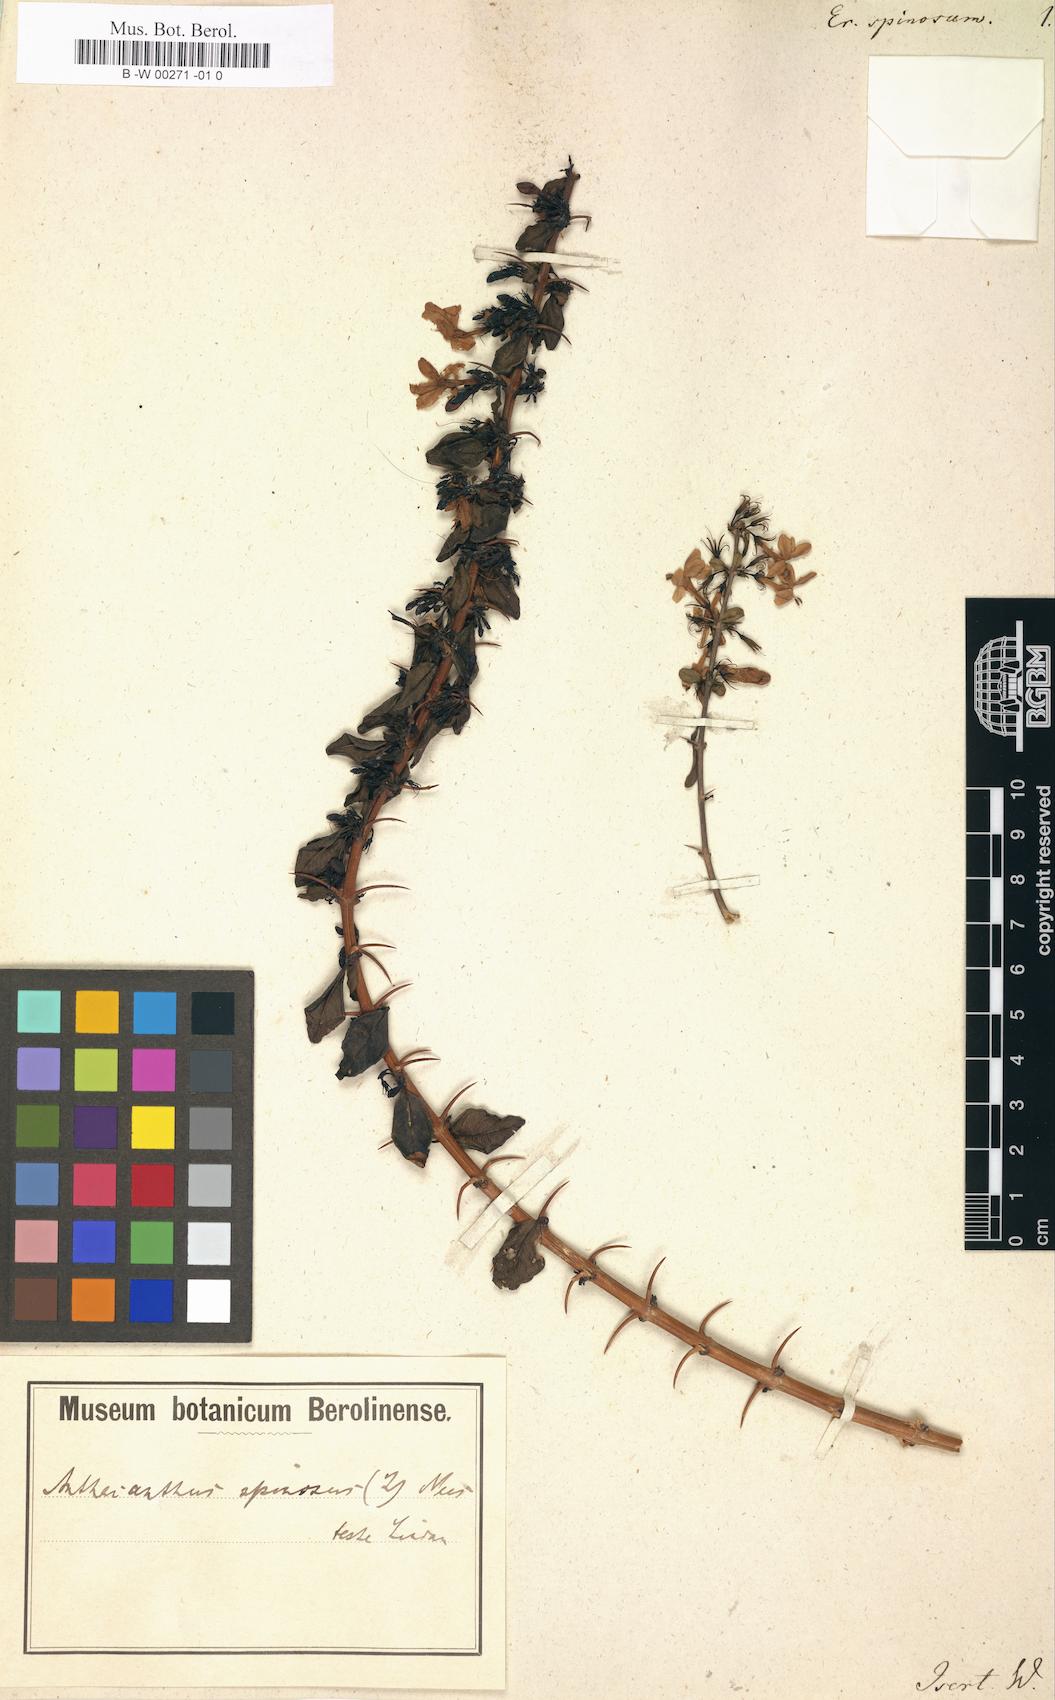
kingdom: Plantae
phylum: Tracheophyta
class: Magnoliopsida
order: Lamiales
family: Acanthaceae
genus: Haplanthodes
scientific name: Haplanthodes verticillatus
